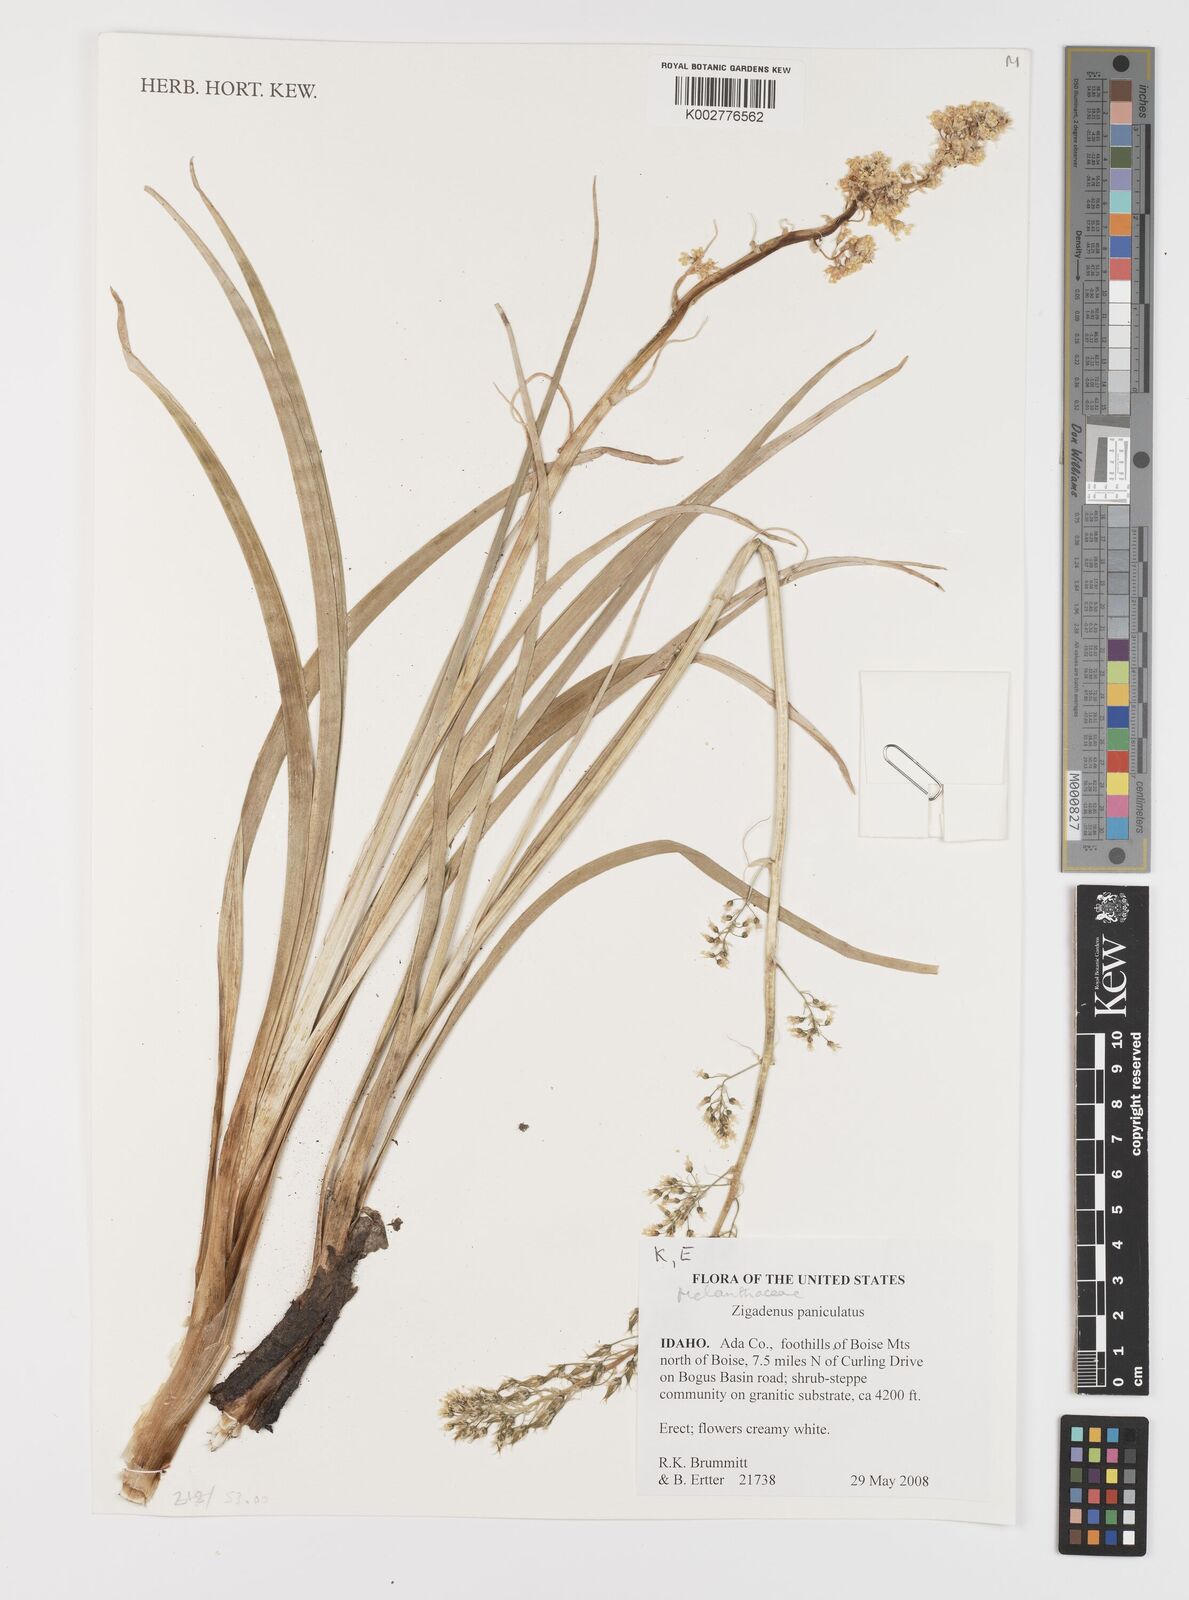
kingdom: Plantae
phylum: Tracheophyta
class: Liliopsida
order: Liliales
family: Melanthiaceae
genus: Toxicoscordion
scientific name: Toxicoscordion paniculatum
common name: Foothill death camas
